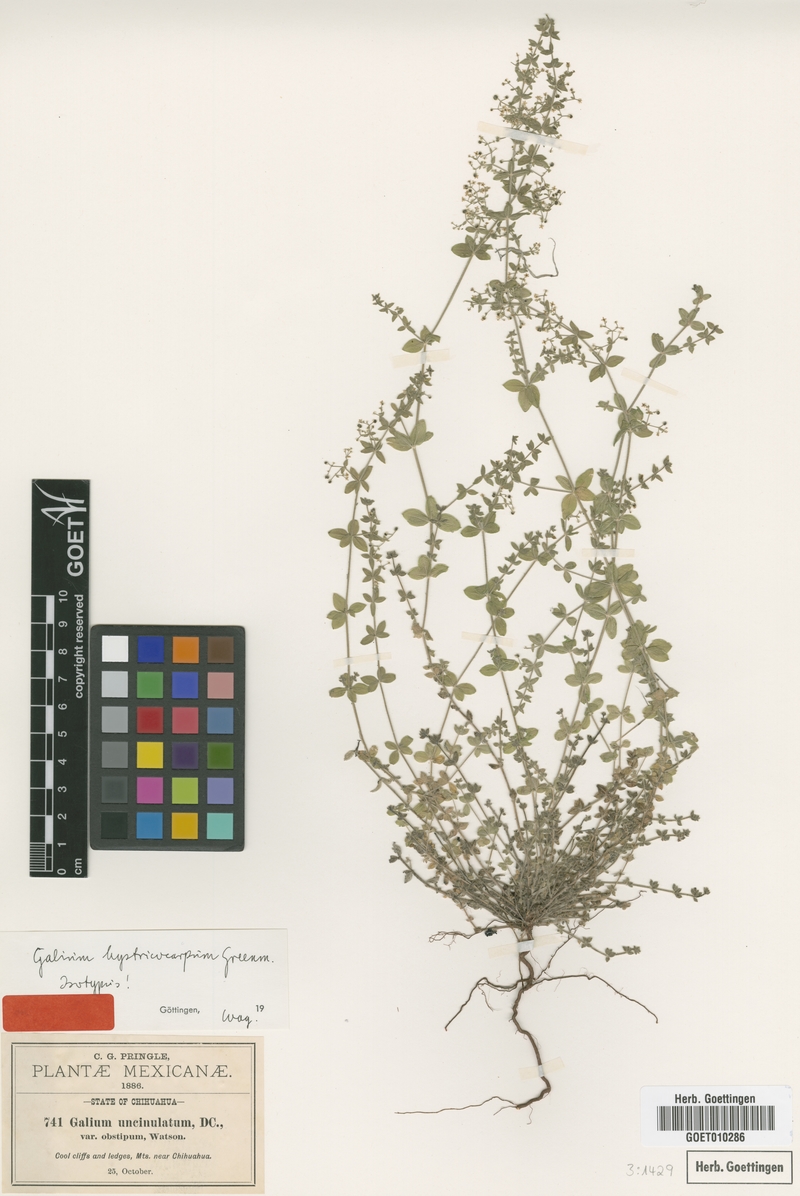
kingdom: Plantae
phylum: Tracheophyta
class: Magnoliopsida
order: Gentianales
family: Rubiaceae
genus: Galium
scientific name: Galium hystricocarpum
